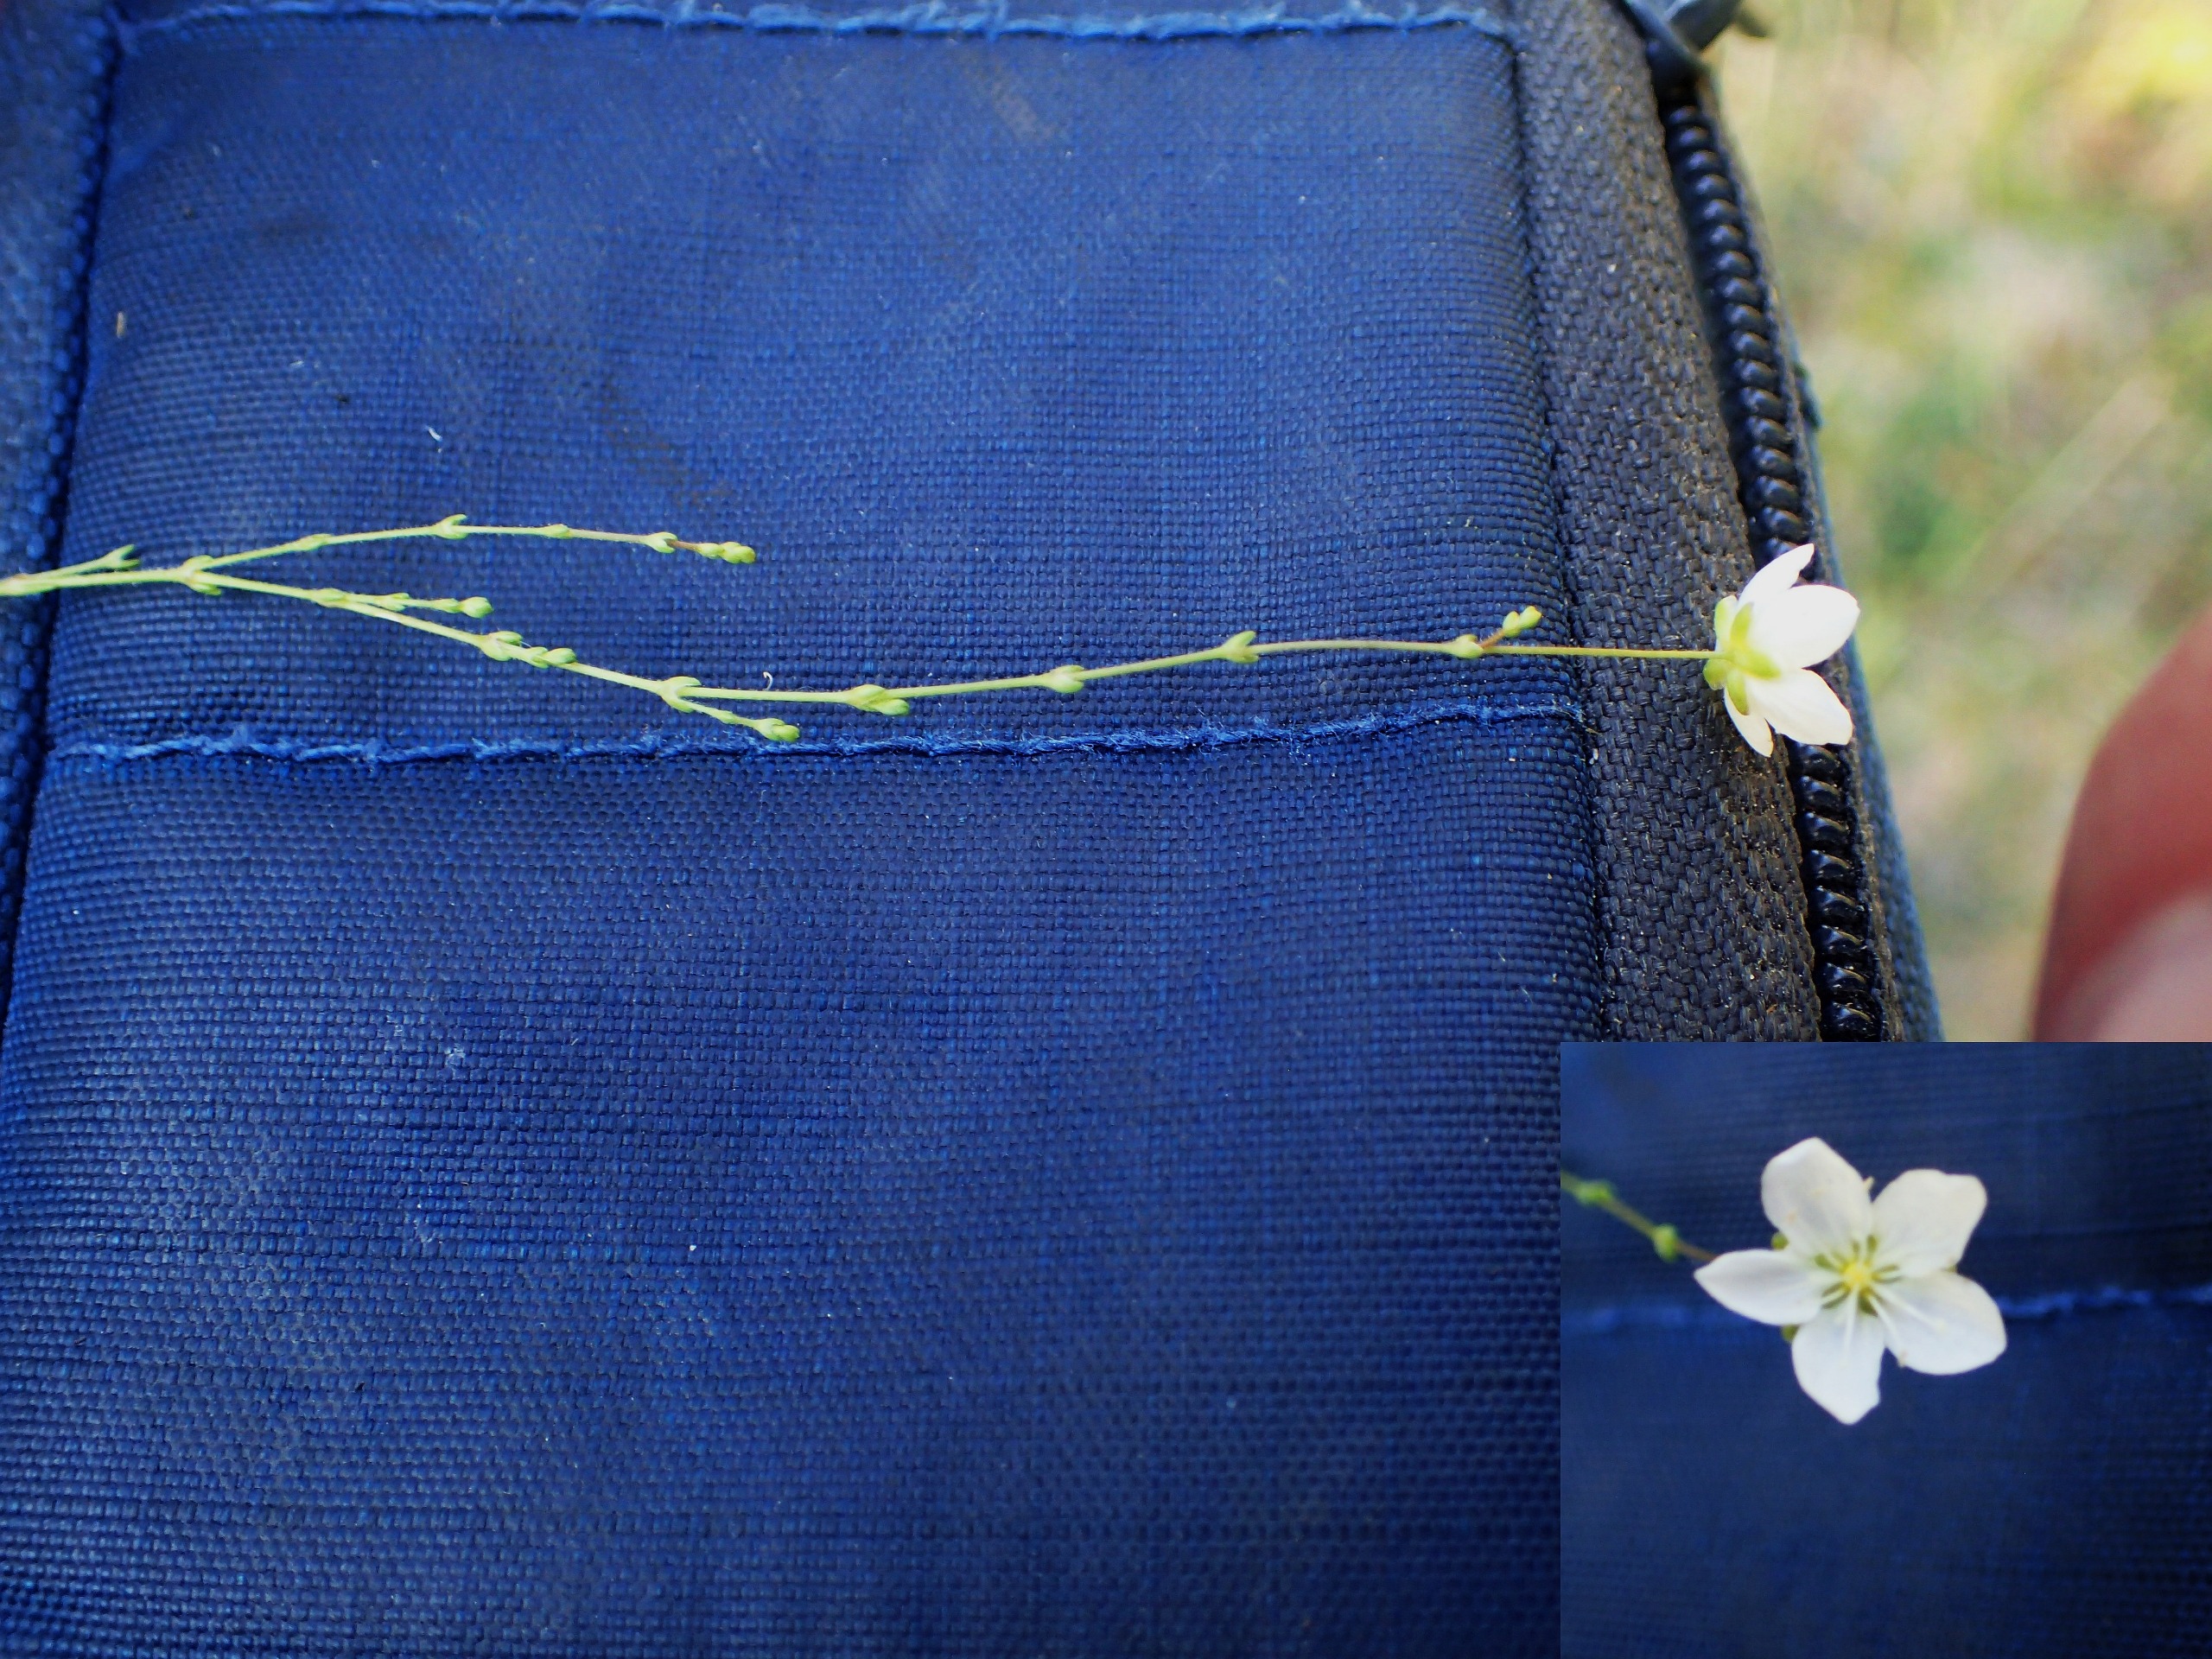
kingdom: Plantae
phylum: Tracheophyta
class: Magnoliopsida
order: Caryophyllales
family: Caryophyllaceae
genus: Sagina
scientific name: Sagina nodosa
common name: Knude-firling
